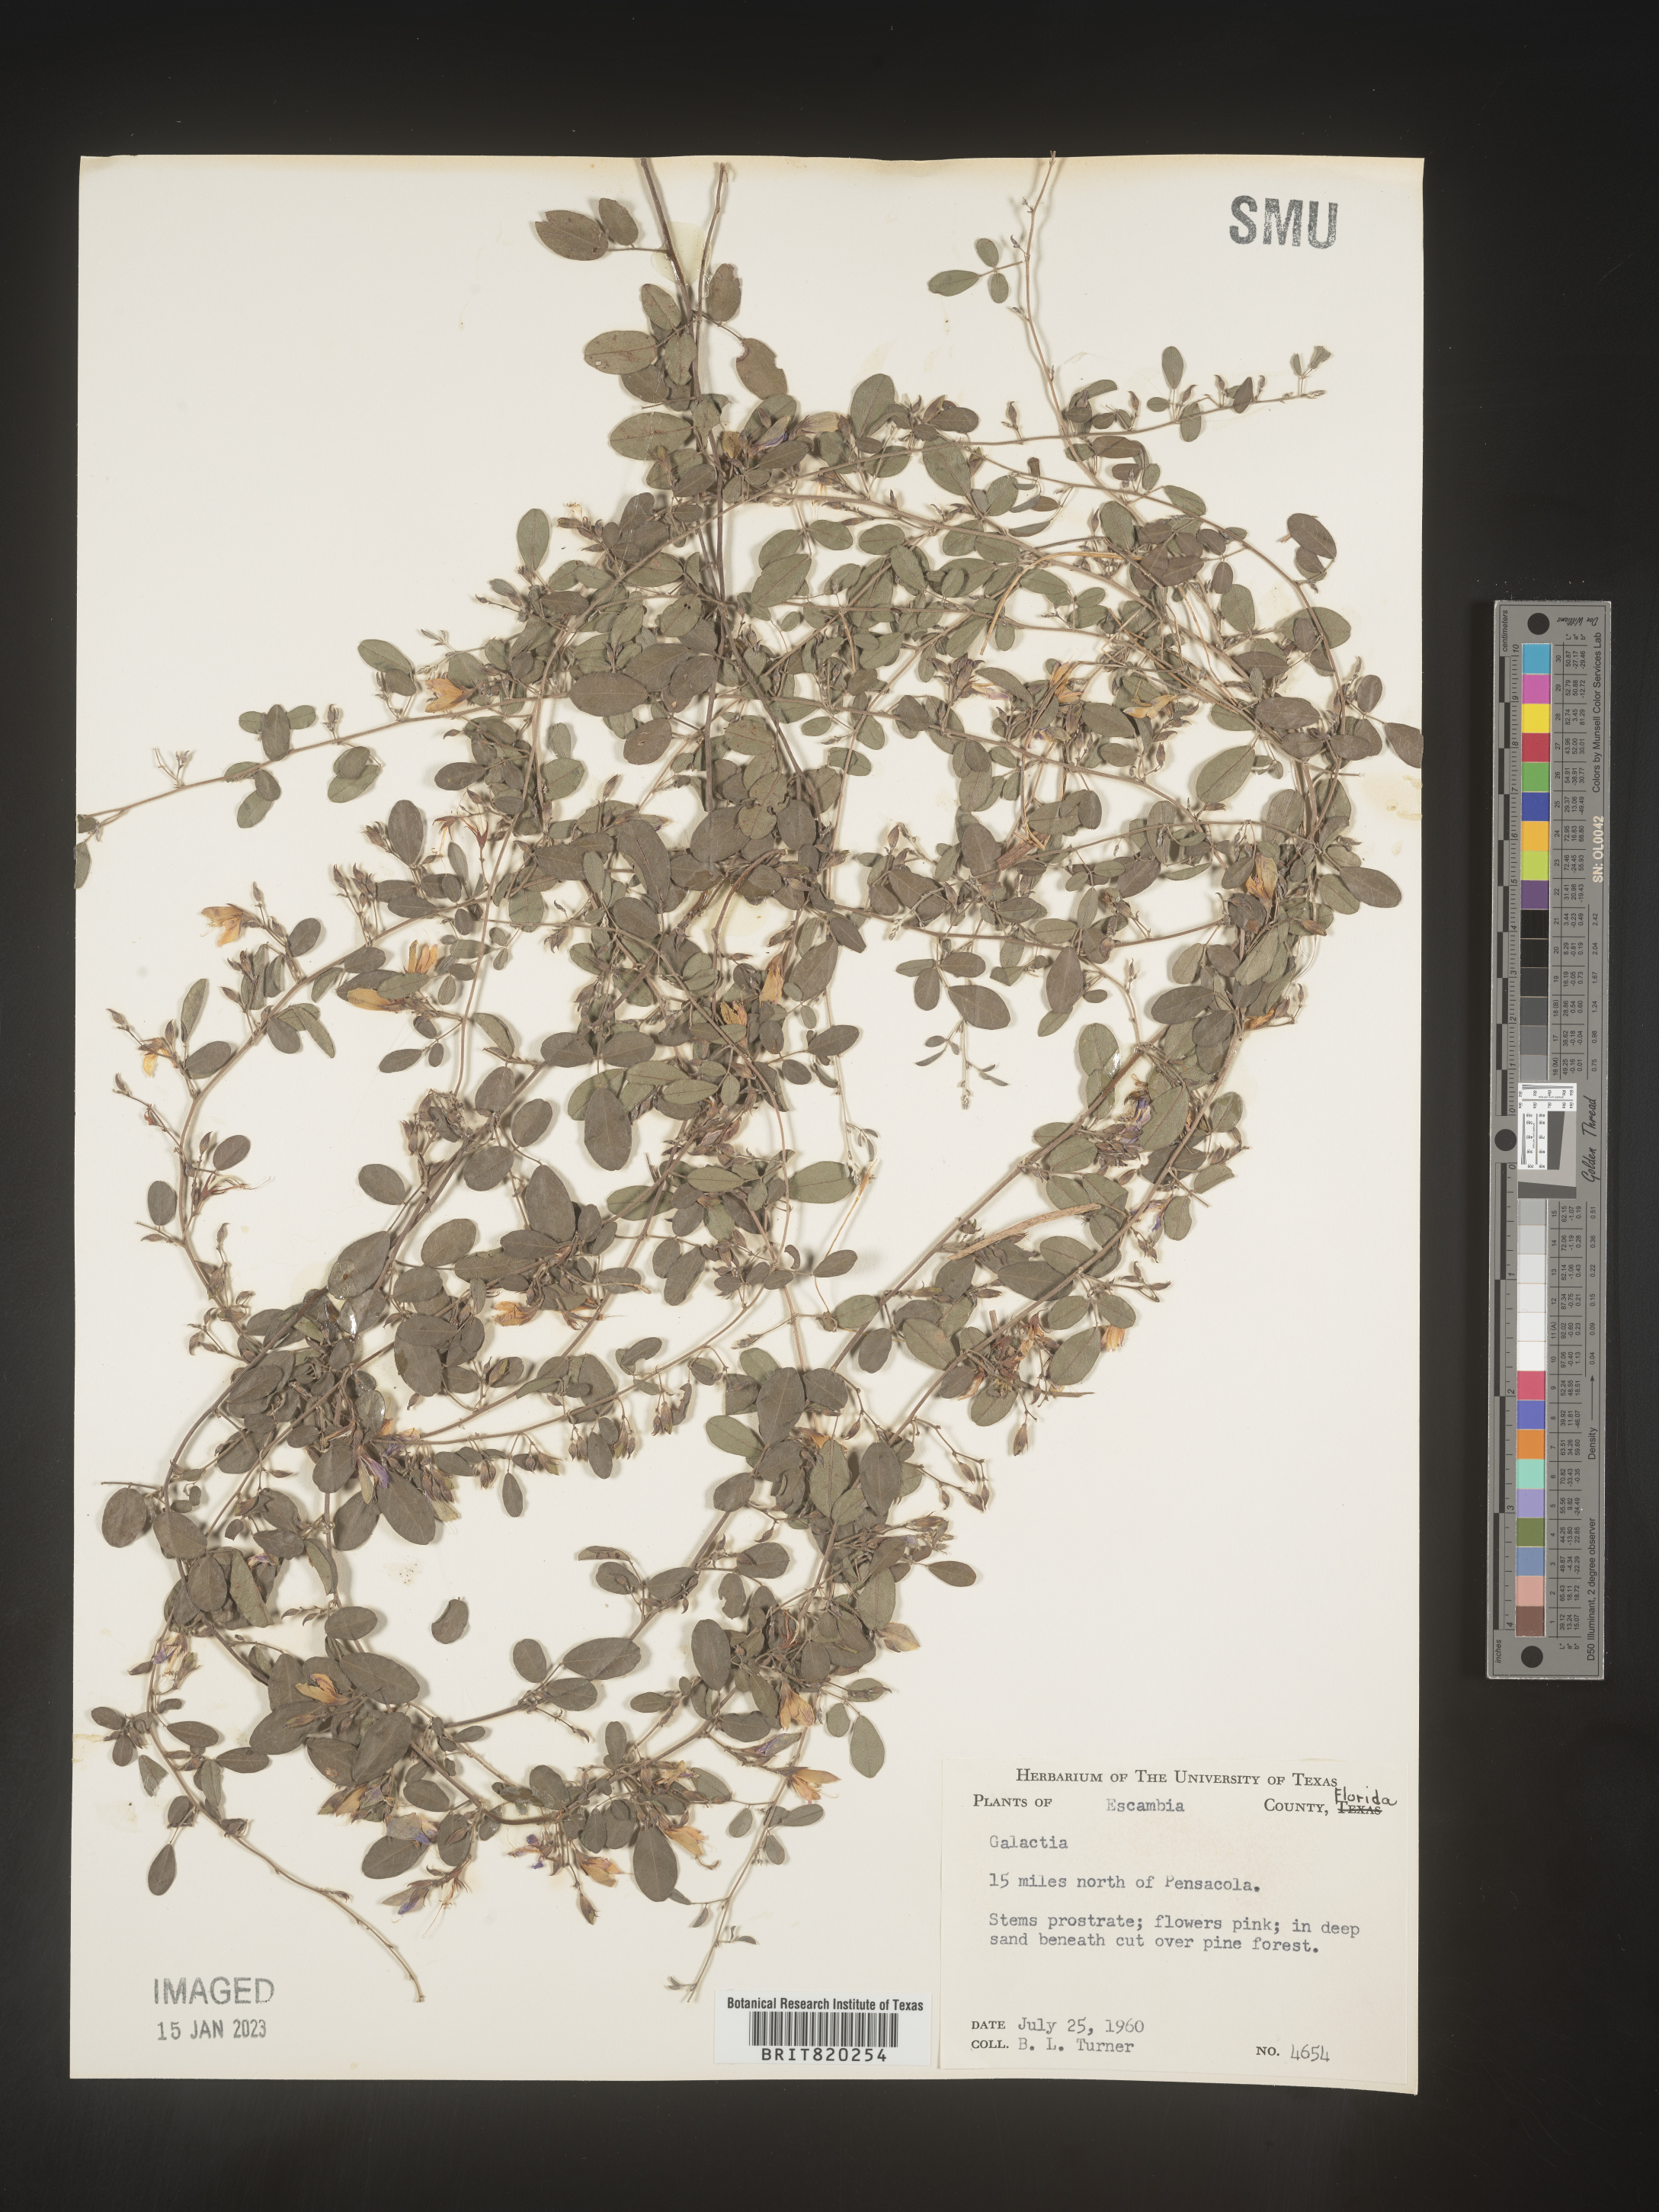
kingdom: Plantae
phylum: Tracheophyta
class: Magnoliopsida
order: Fabales
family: Fabaceae
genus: Galactia
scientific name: Galactia microphylla
